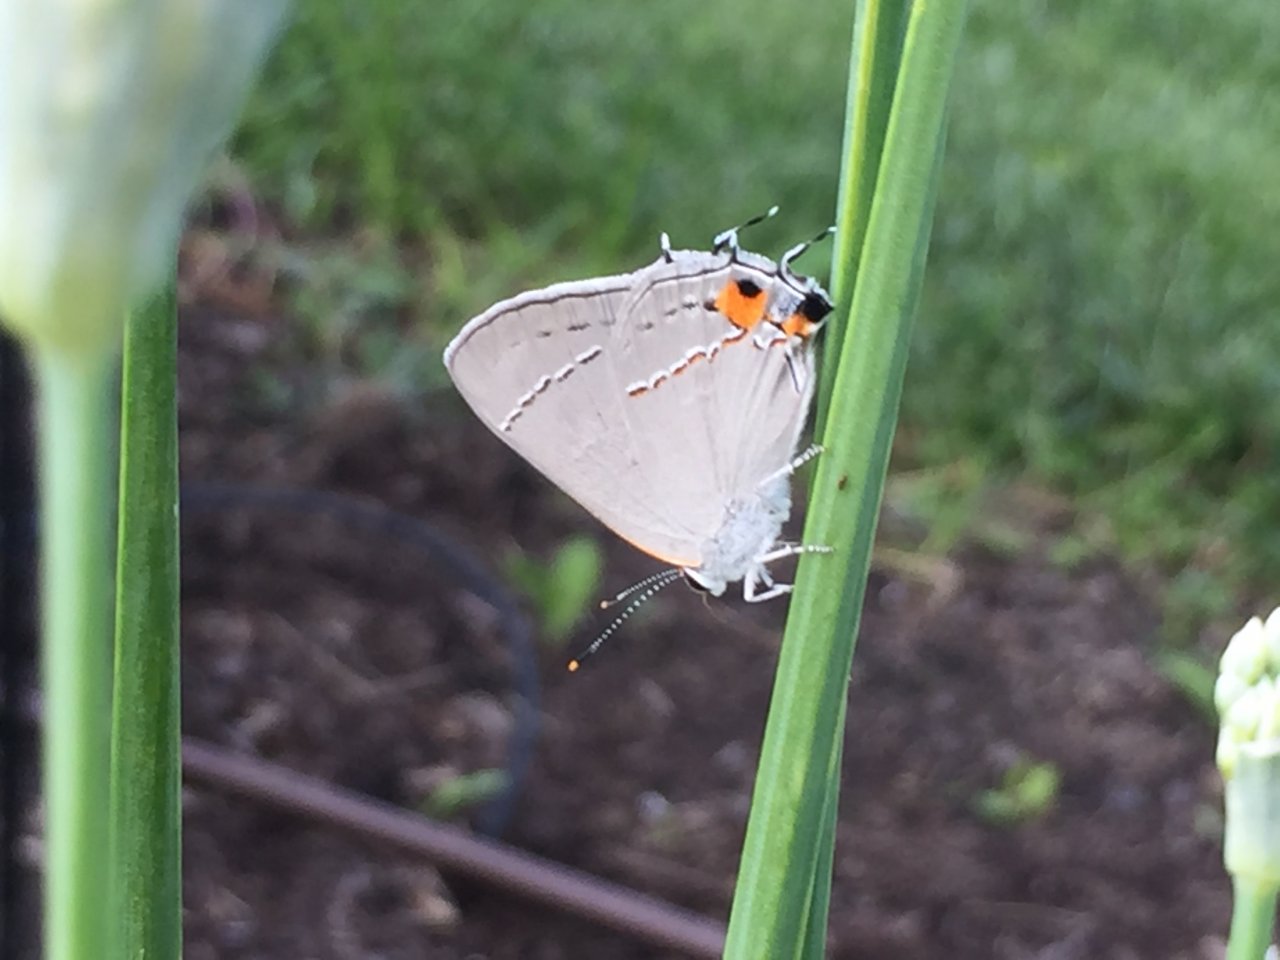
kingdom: Animalia
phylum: Arthropoda
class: Insecta
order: Lepidoptera
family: Lycaenidae
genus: Strymon
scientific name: Strymon melinus
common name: Gray Hairstreak
